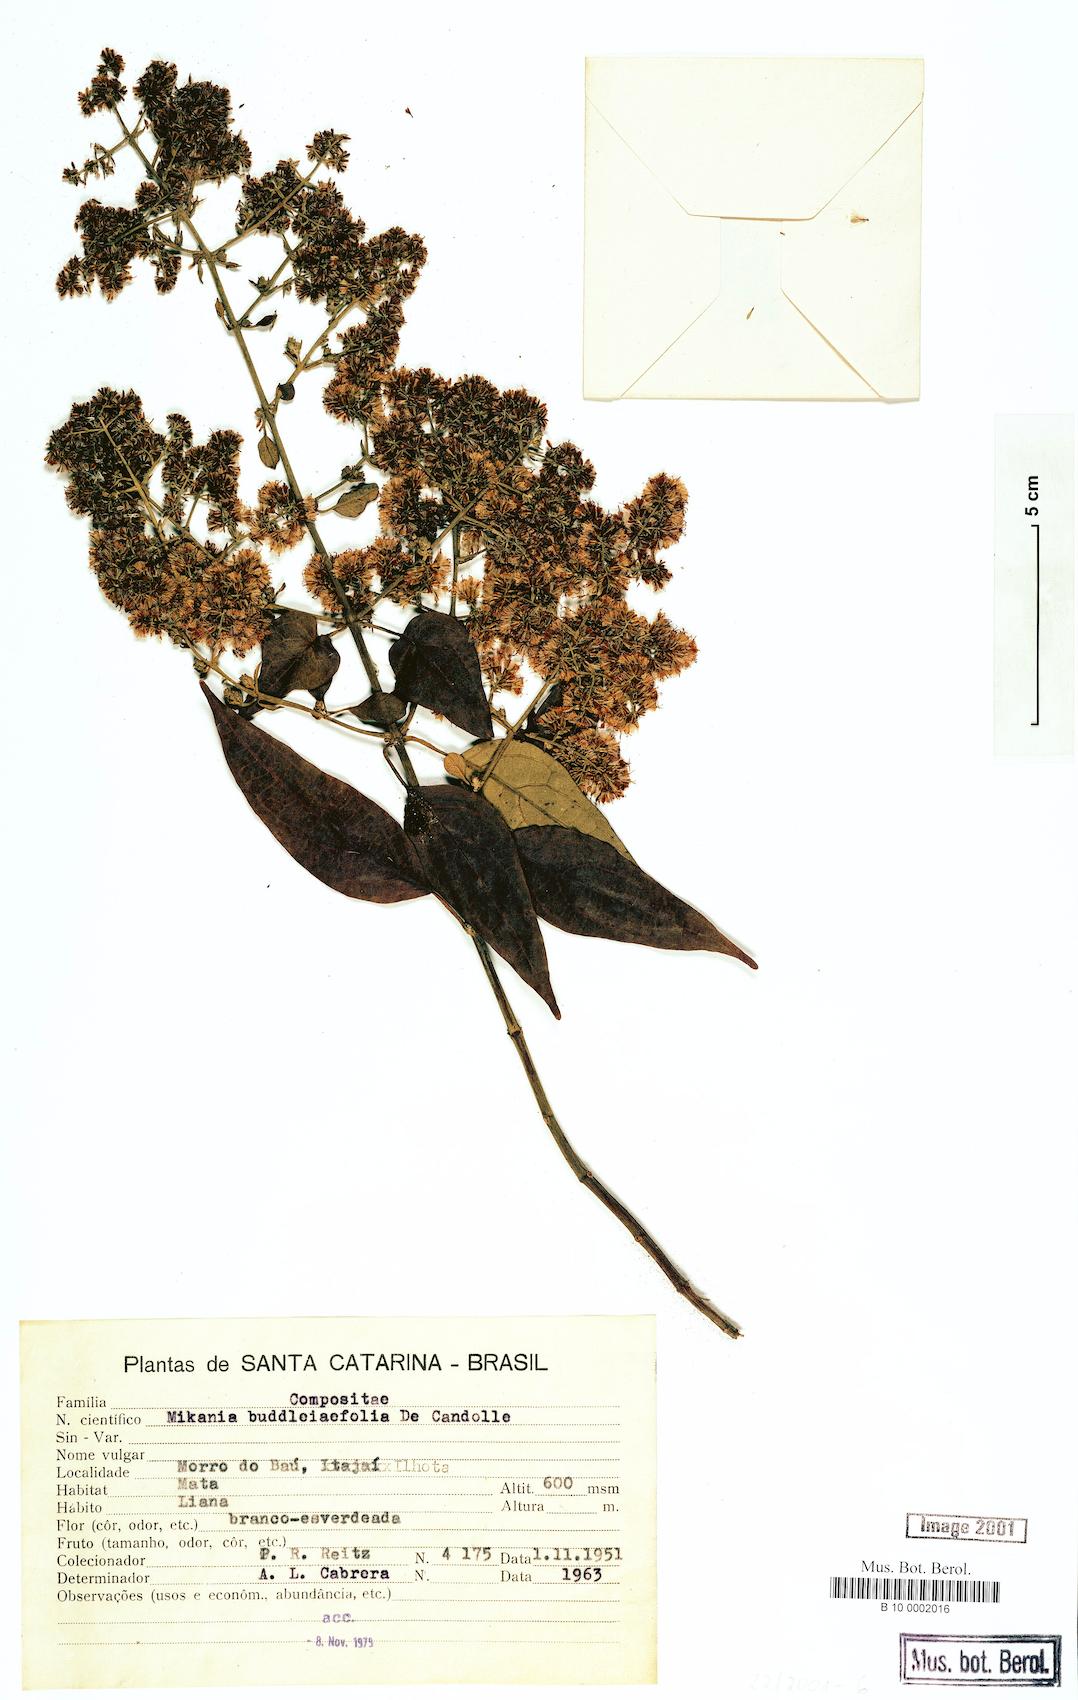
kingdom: Plantae
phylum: Tracheophyta
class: Magnoliopsida
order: Asterales
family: Asteraceae
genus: Mikania
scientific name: Mikania buddlejifolia
